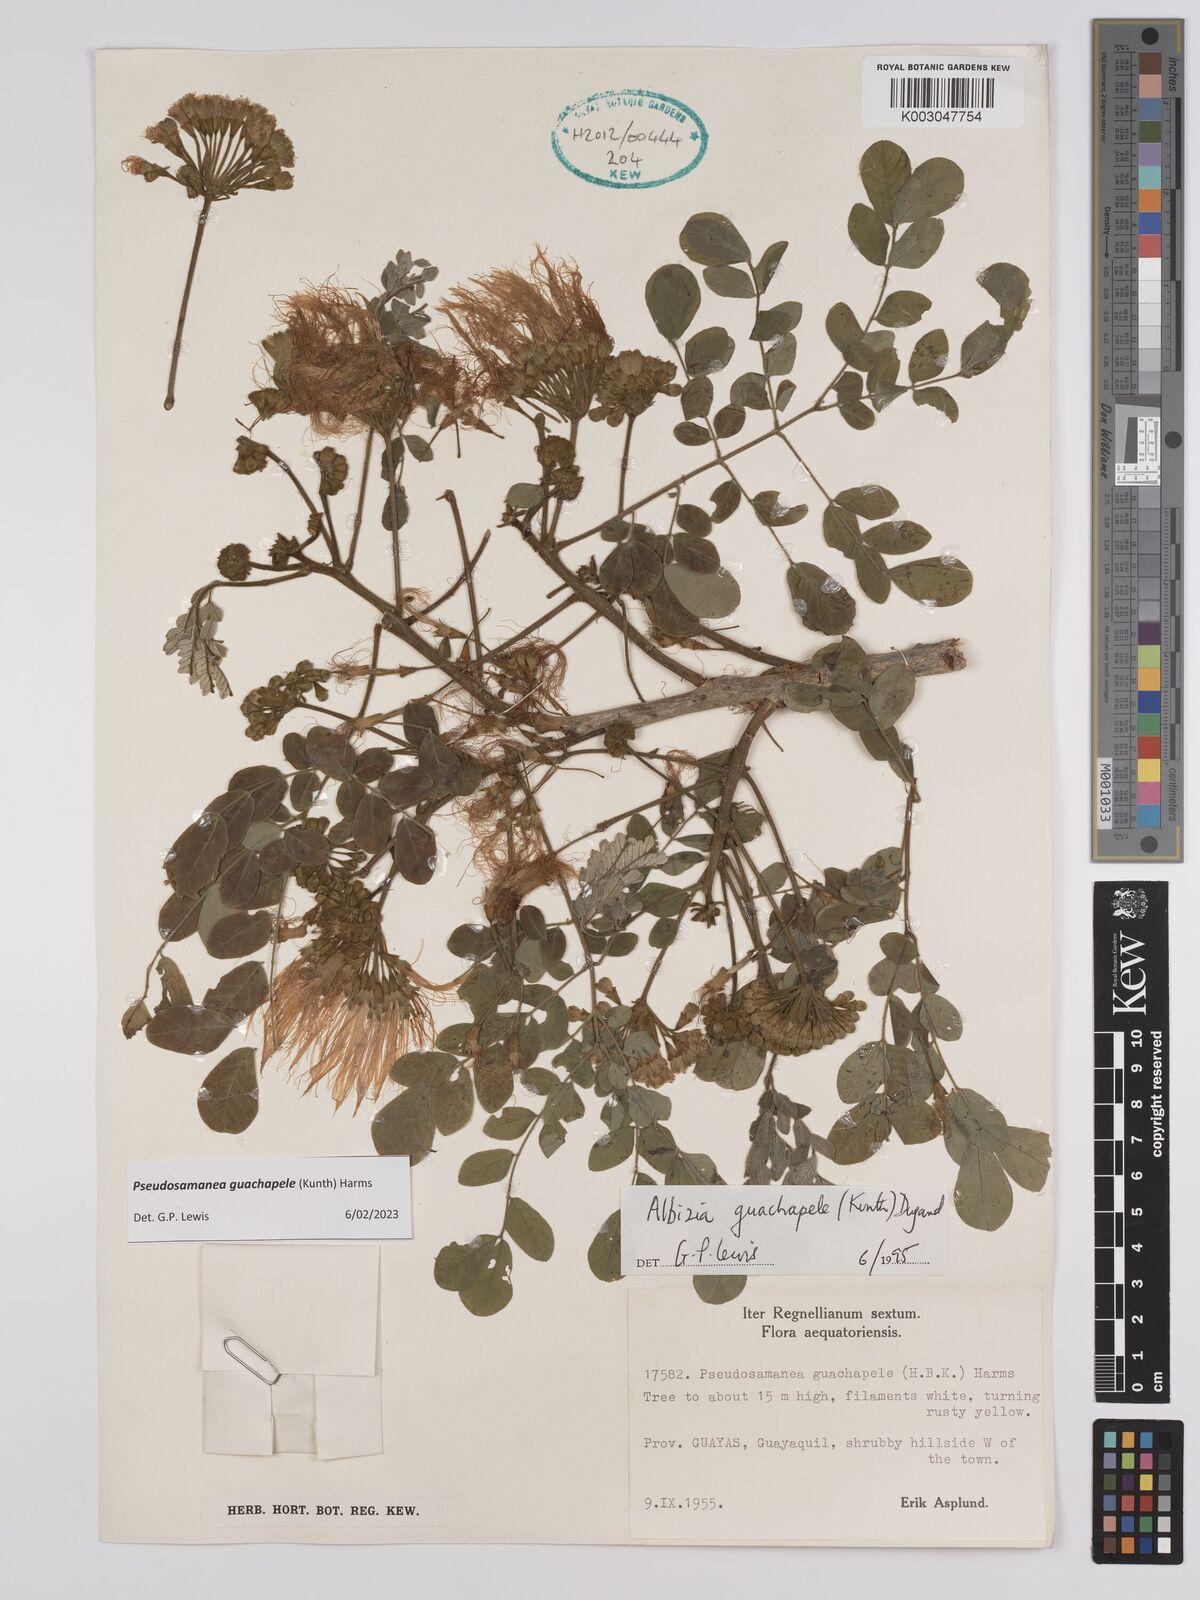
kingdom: Plantae
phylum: Tracheophyta
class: Magnoliopsida
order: Fabales
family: Fabaceae
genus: Pseudosamanea
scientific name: Pseudosamanea guachapele
